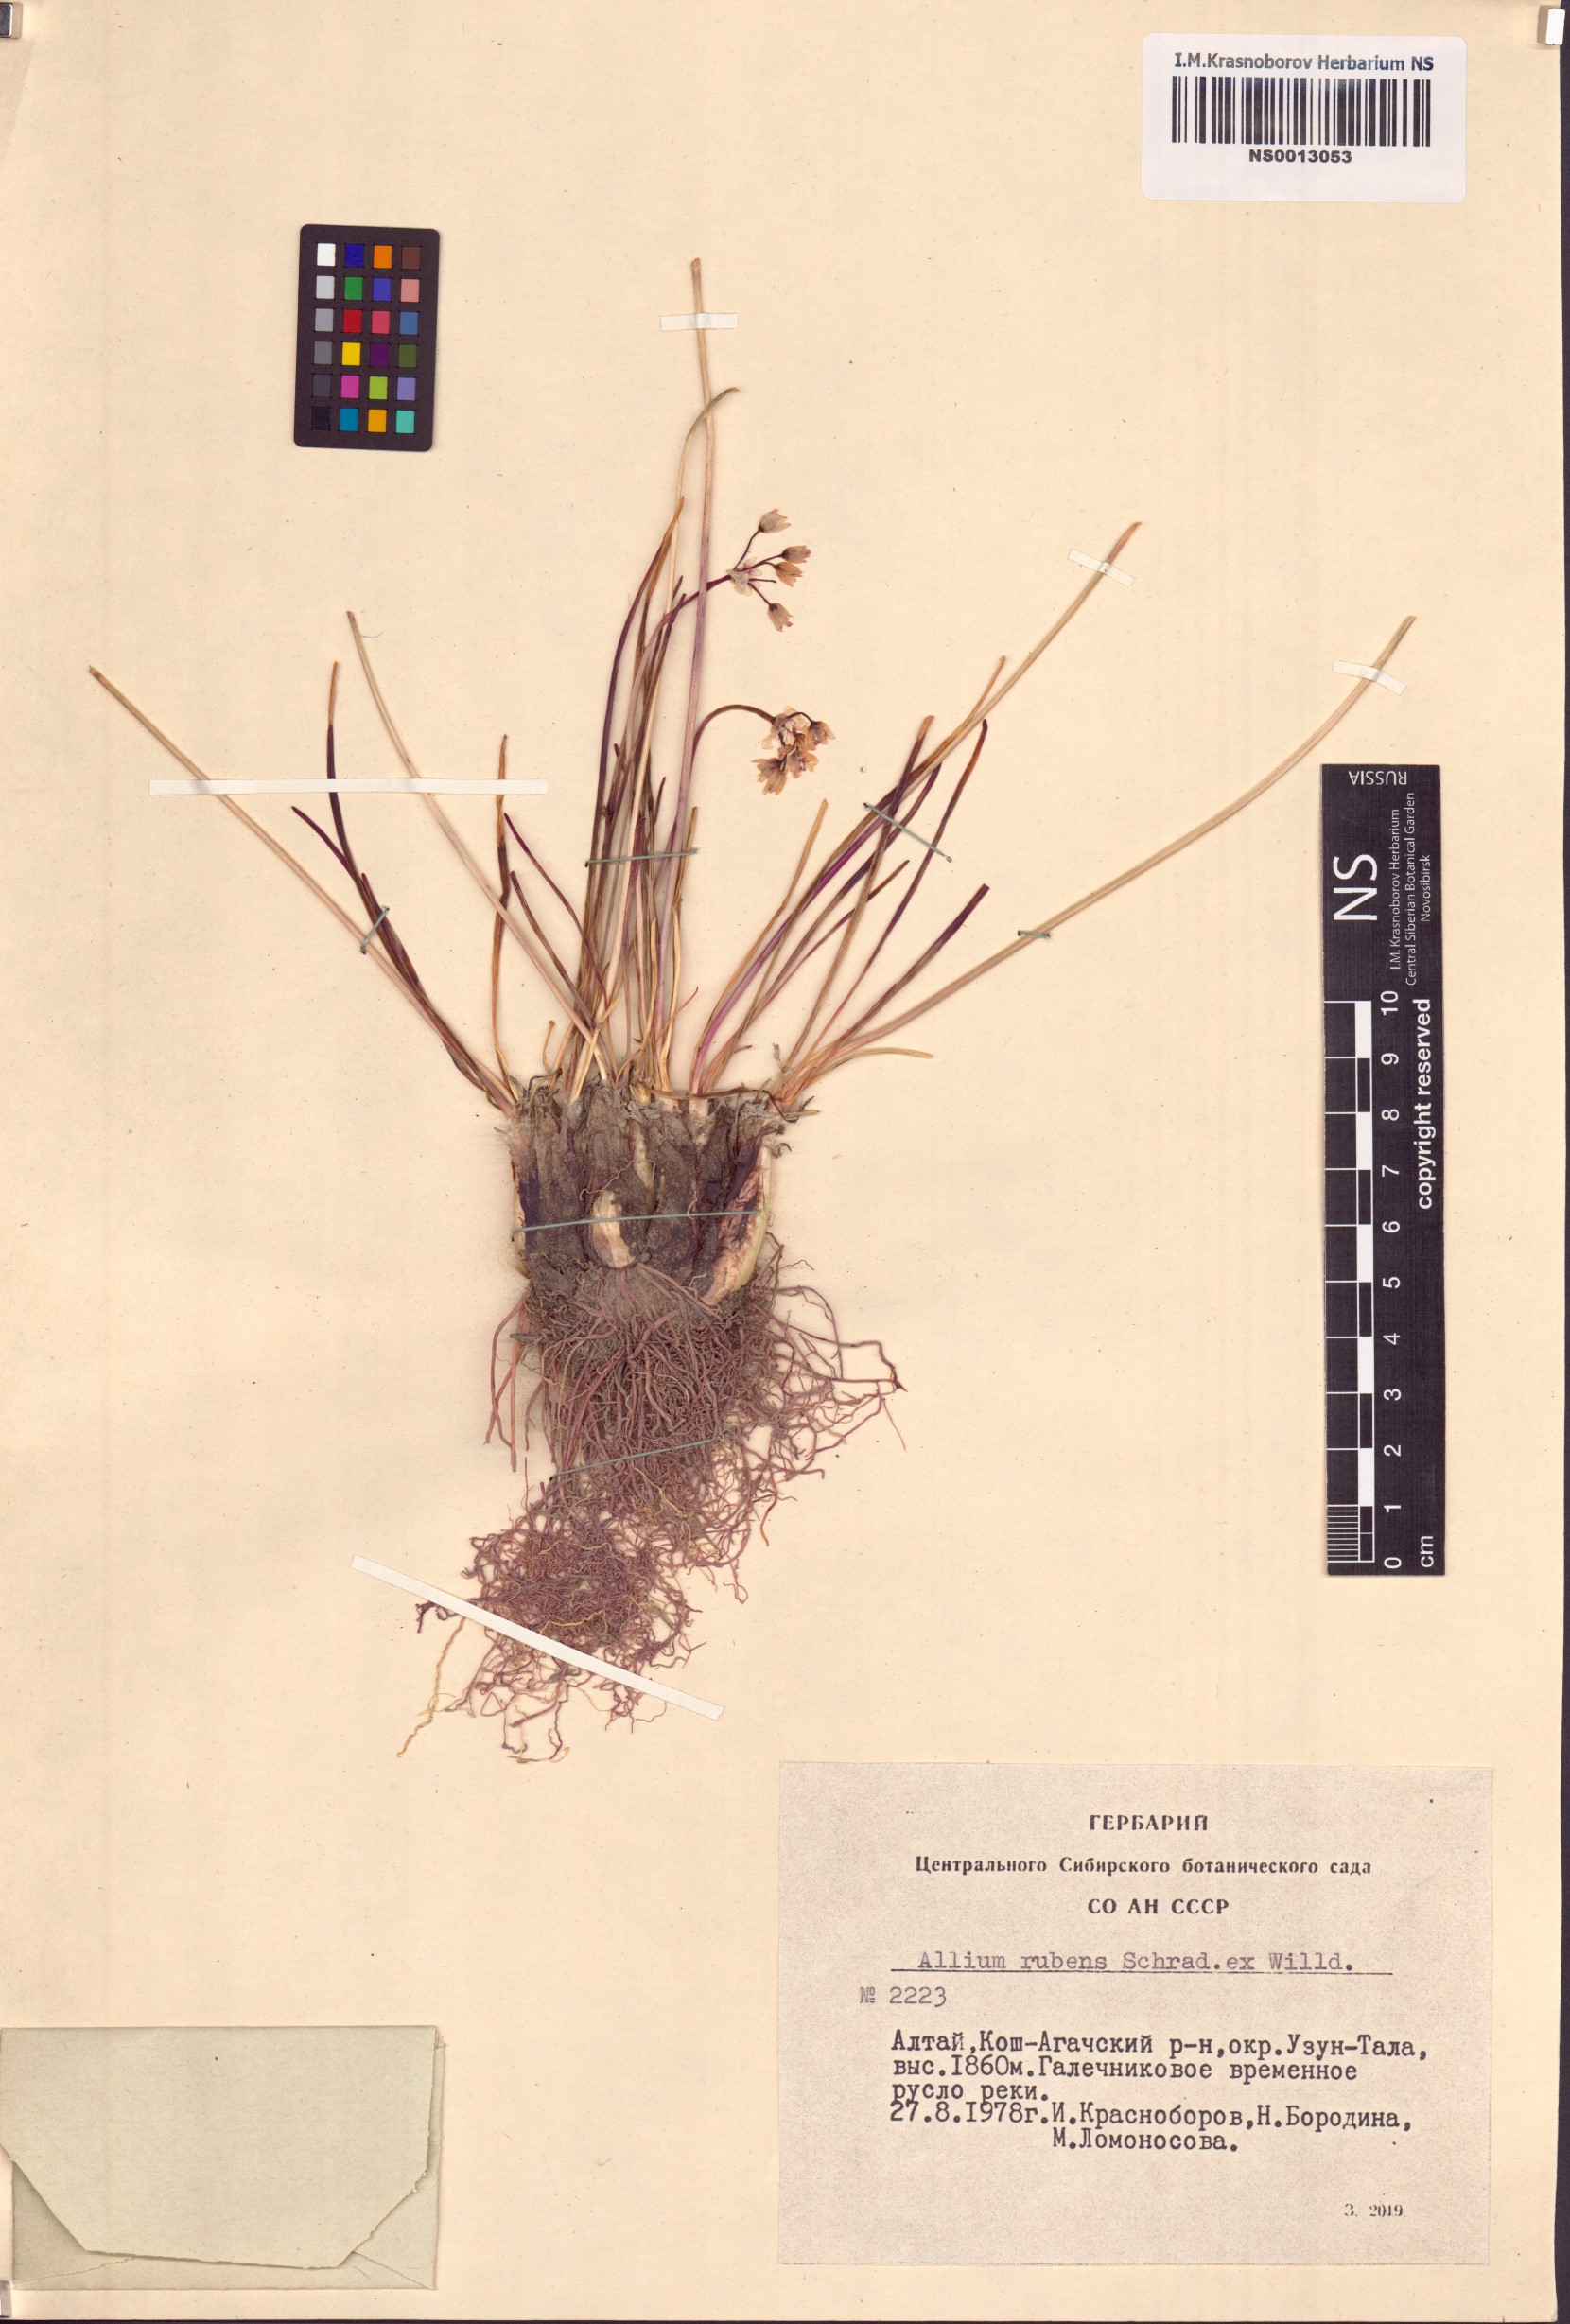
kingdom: Plantae
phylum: Tracheophyta
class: Liliopsida
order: Asparagales
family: Amaryllidaceae
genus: Allium
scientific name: Allium rubens
